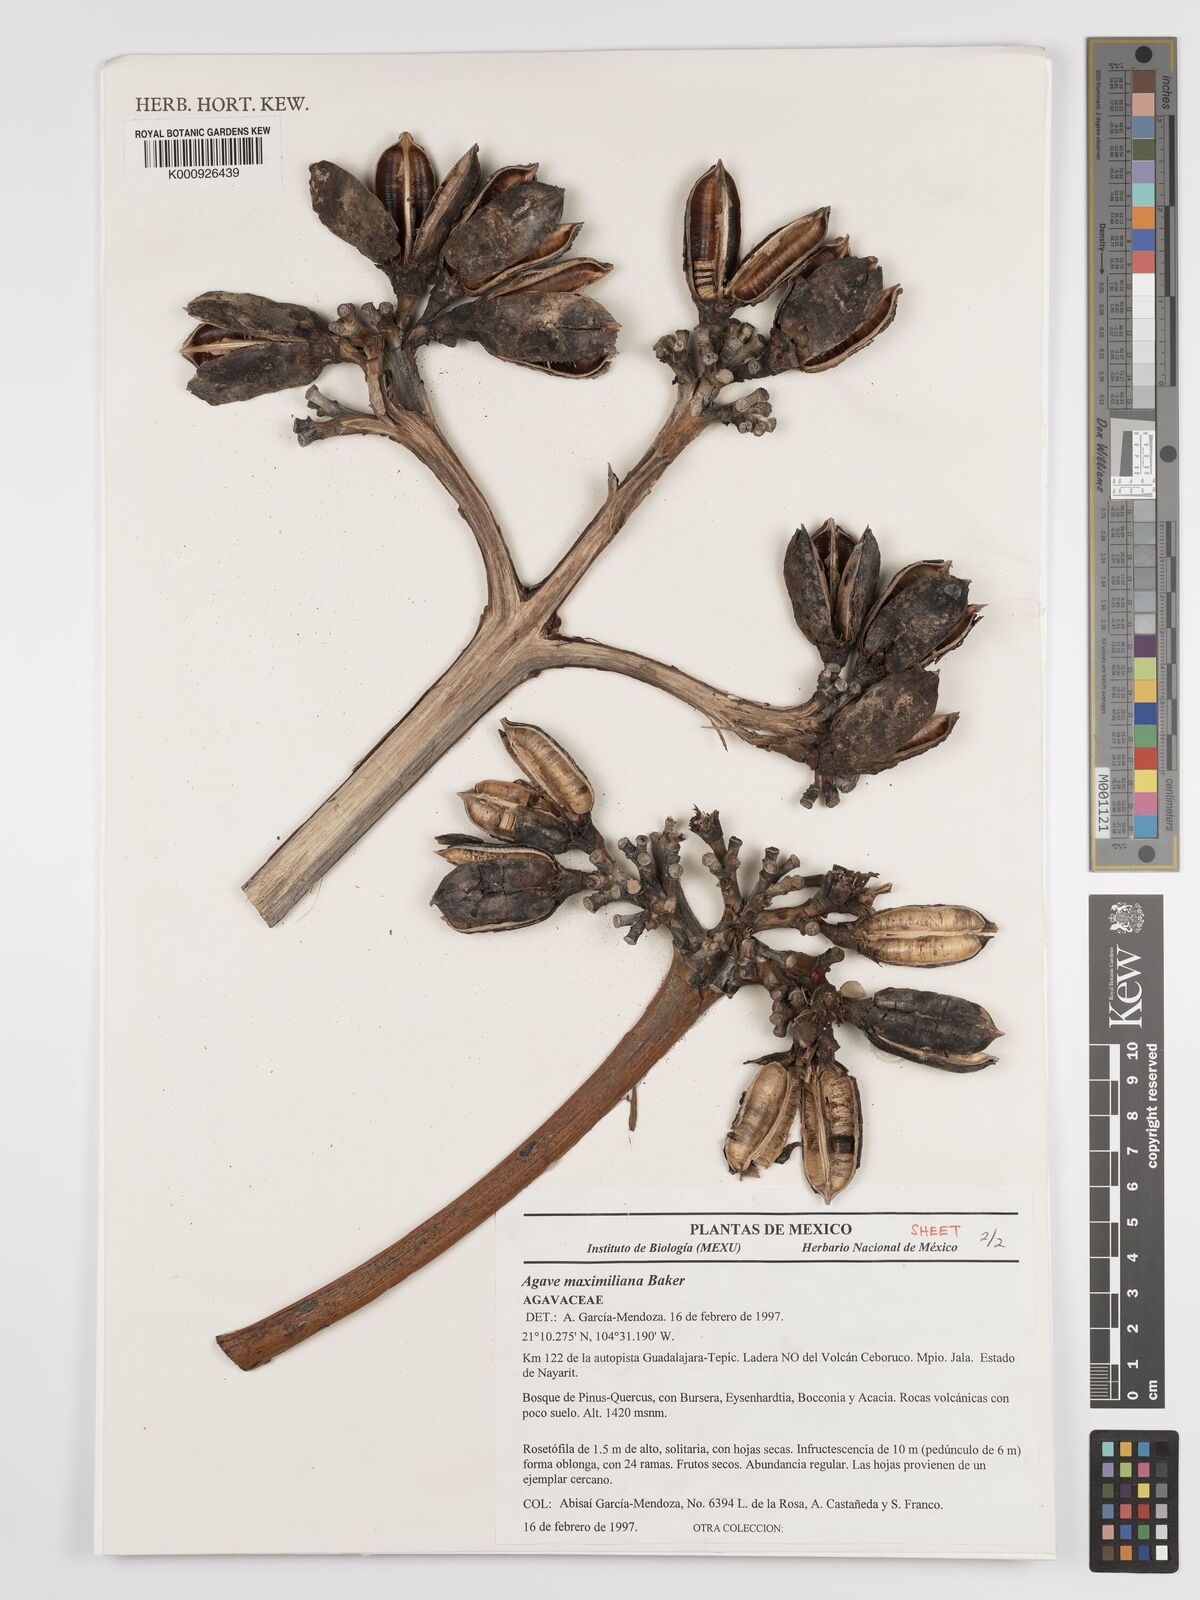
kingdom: Plantae
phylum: Tracheophyta
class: Liliopsida
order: Asparagales
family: Asparagaceae
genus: Agave
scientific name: Agave maximiliana
